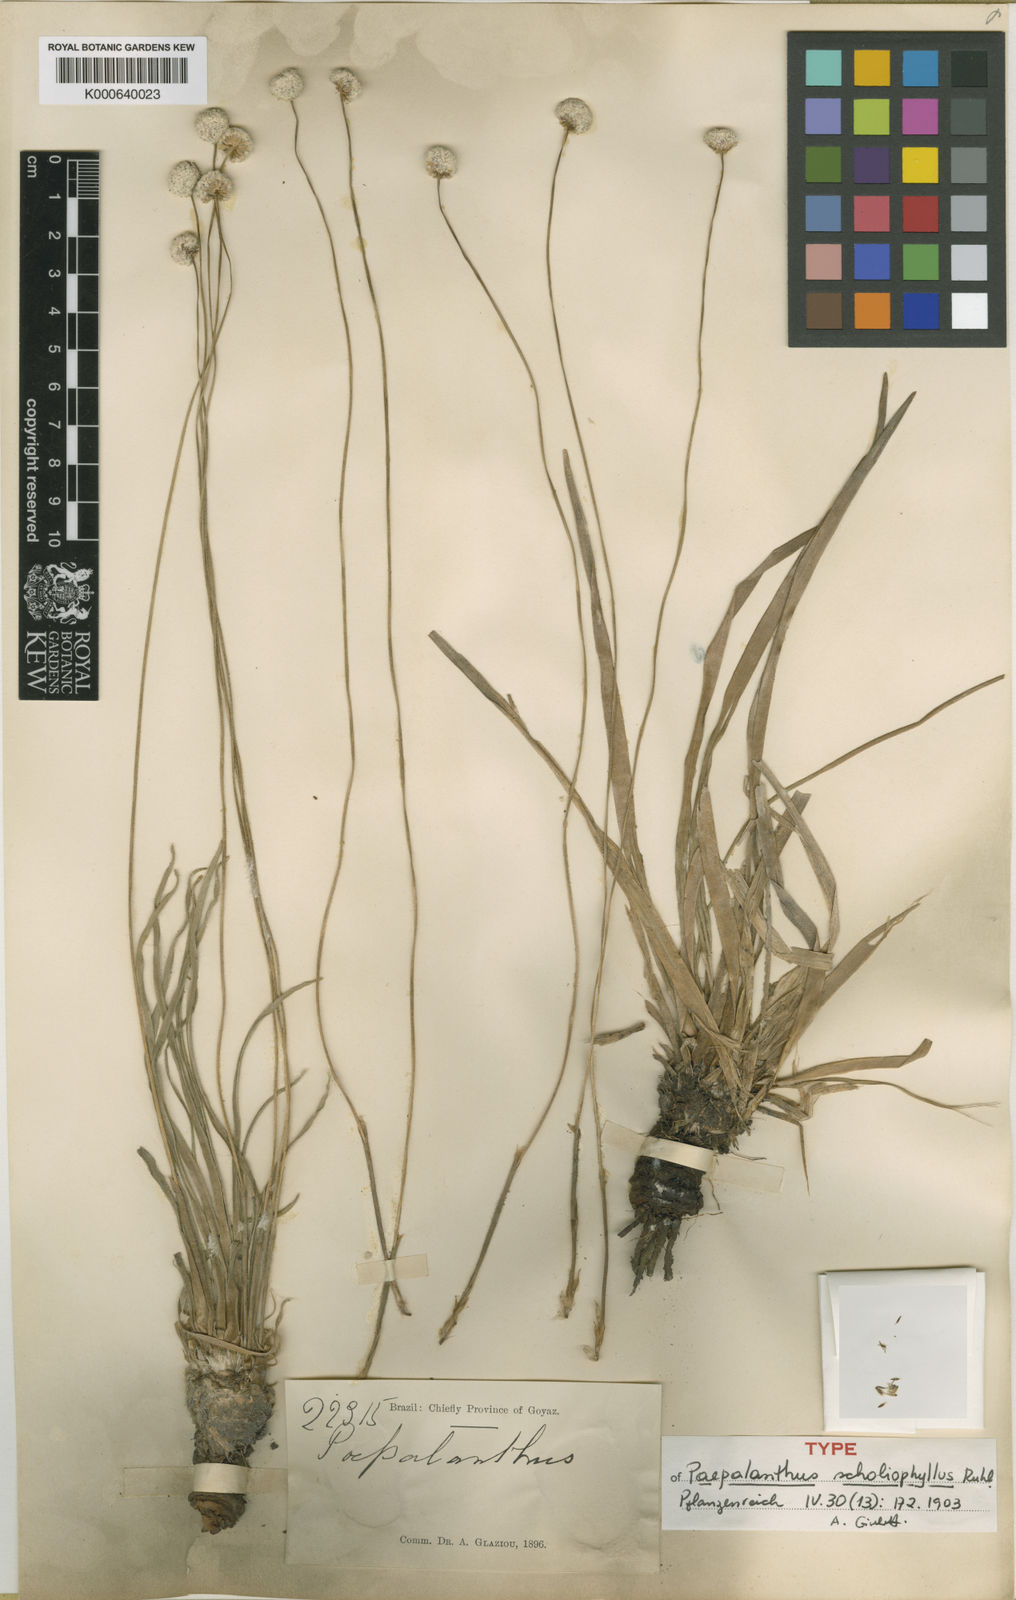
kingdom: Plantae
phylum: Tracheophyta
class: Liliopsida
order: Poales
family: Eriocaulaceae
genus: Paepalanthus
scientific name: Paepalanthus scholiophyllus
